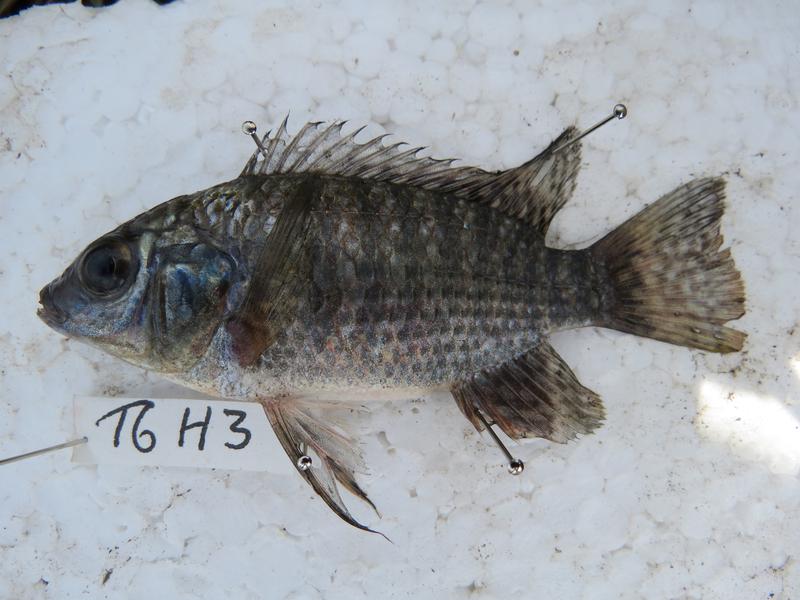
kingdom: Animalia
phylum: Chordata
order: Perciformes
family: Cichlidae
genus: Oreochromis
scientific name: Oreochromis leucostictus
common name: Blue spotted tilapia
